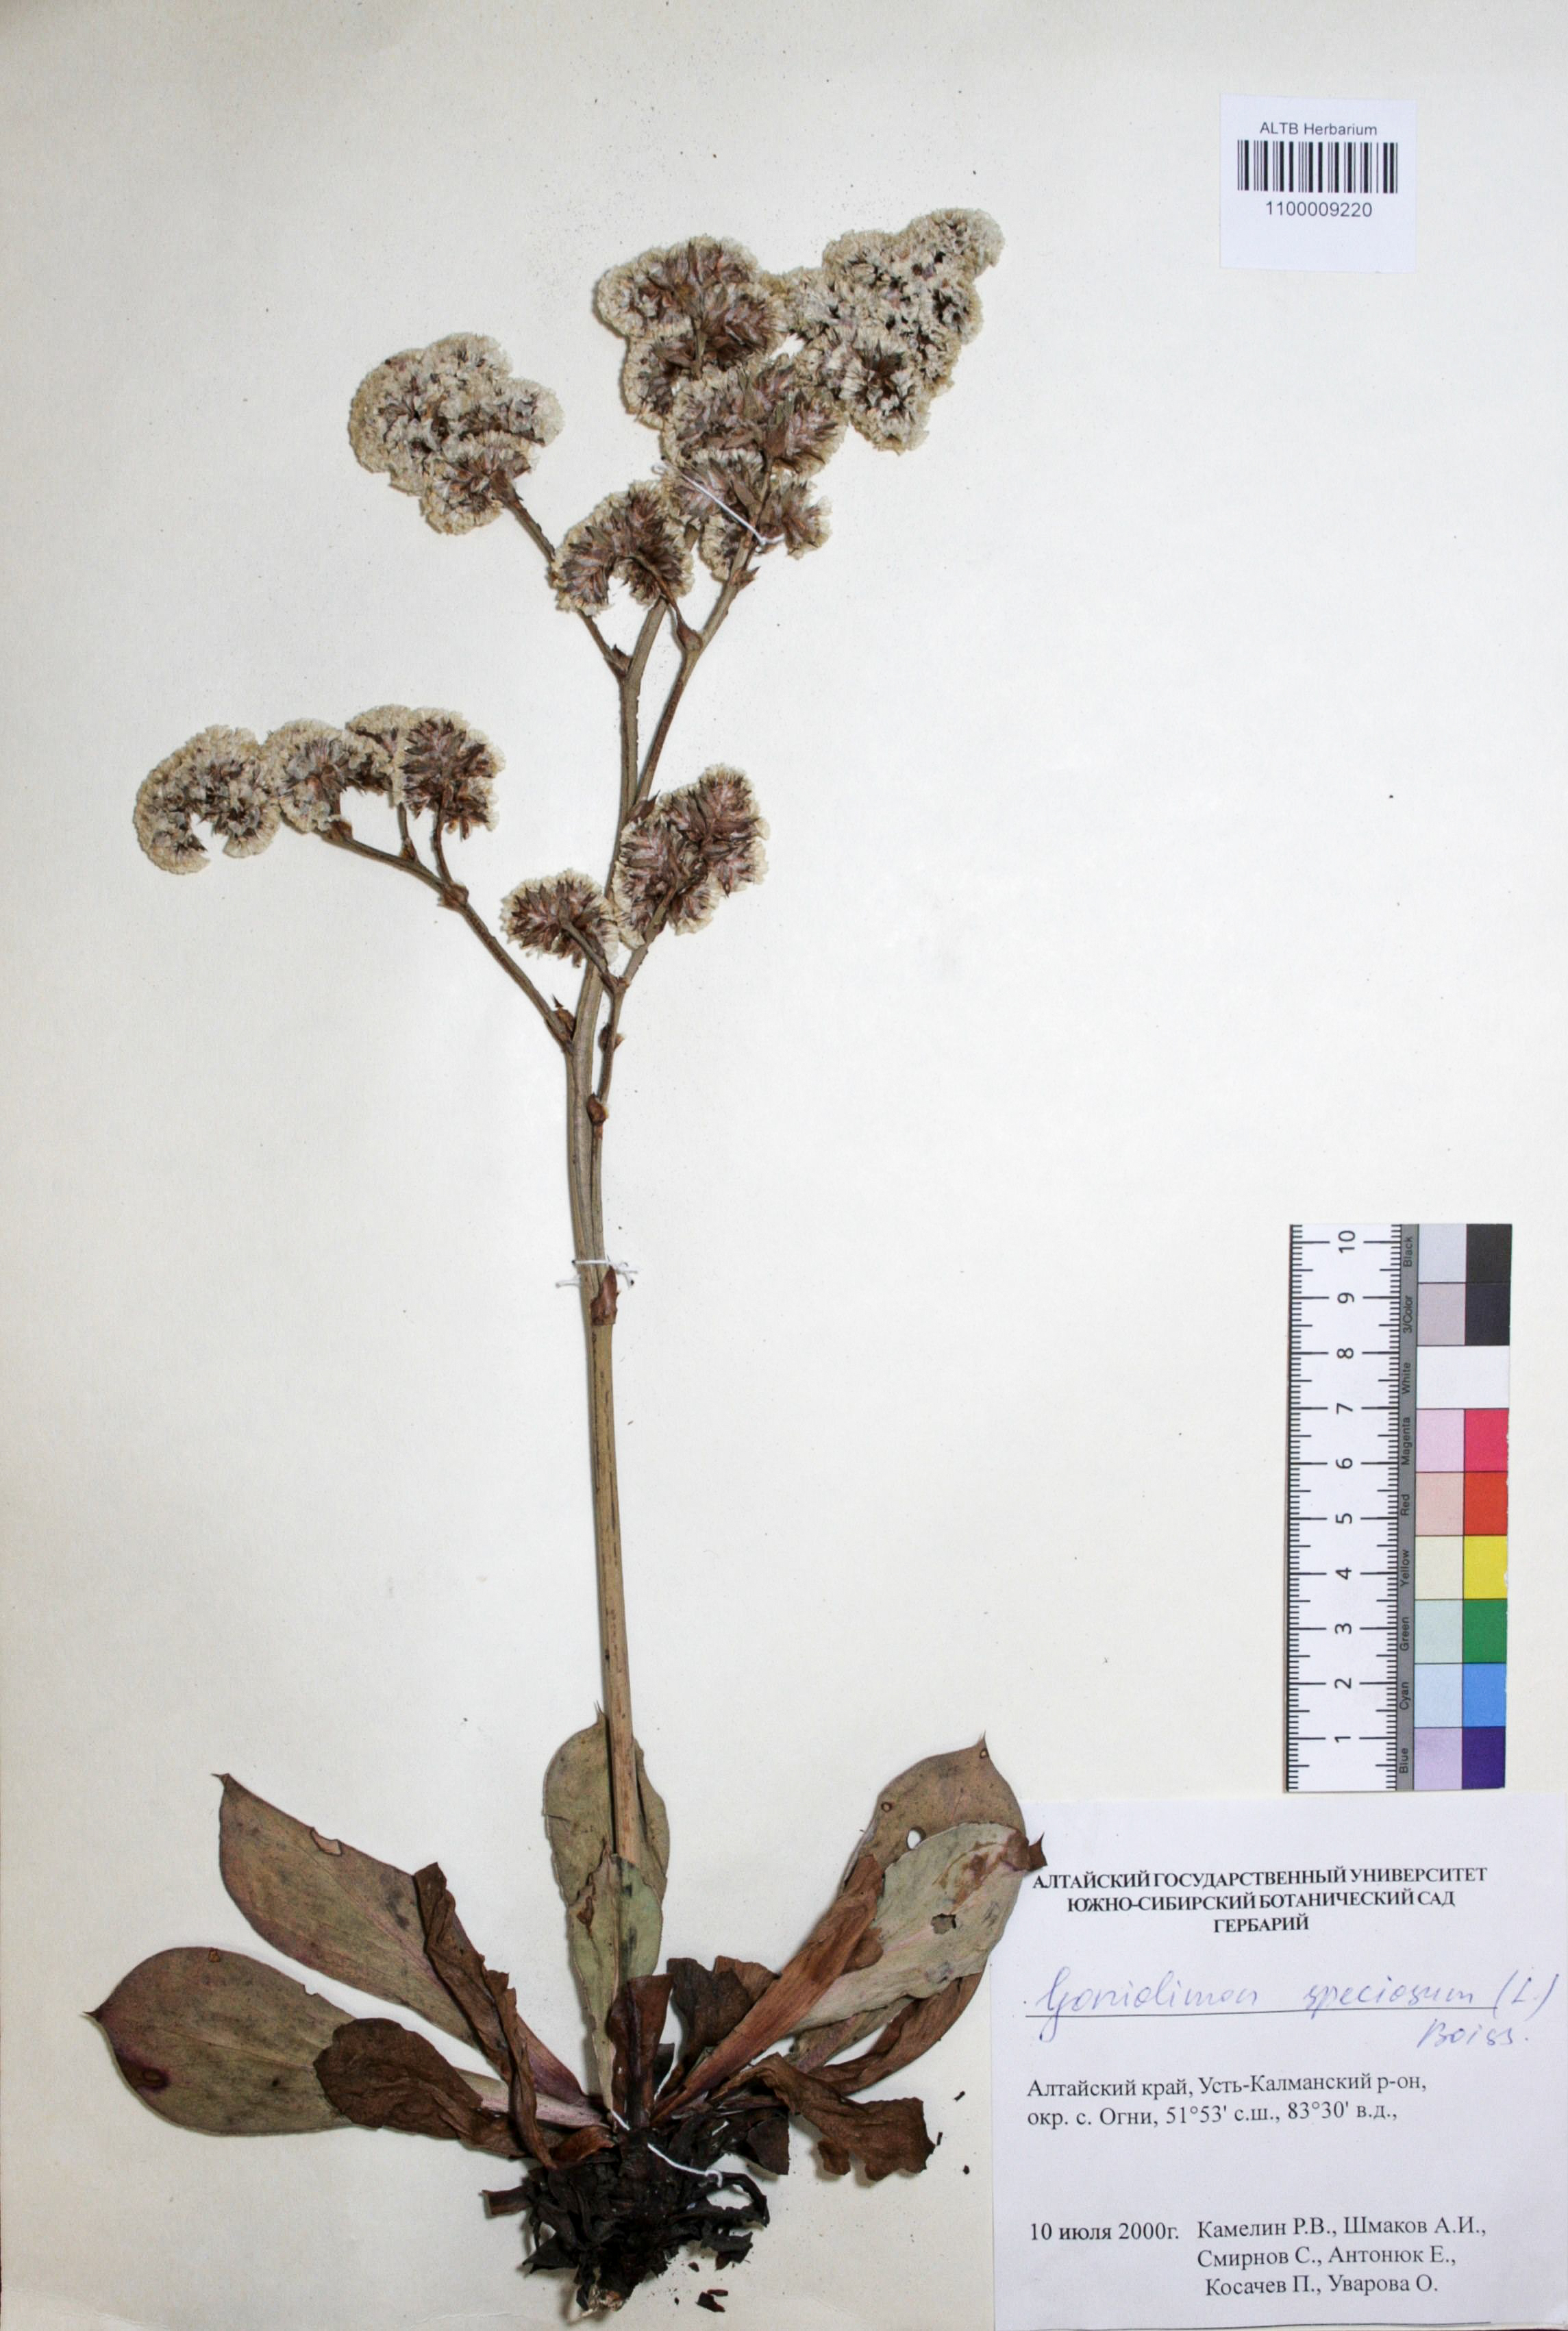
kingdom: Plantae
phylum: Tracheophyta
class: Magnoliopsida
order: Caryophyllales
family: Plumbaginaceae
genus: Goniolimon
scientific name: Goniolimon speciosum
